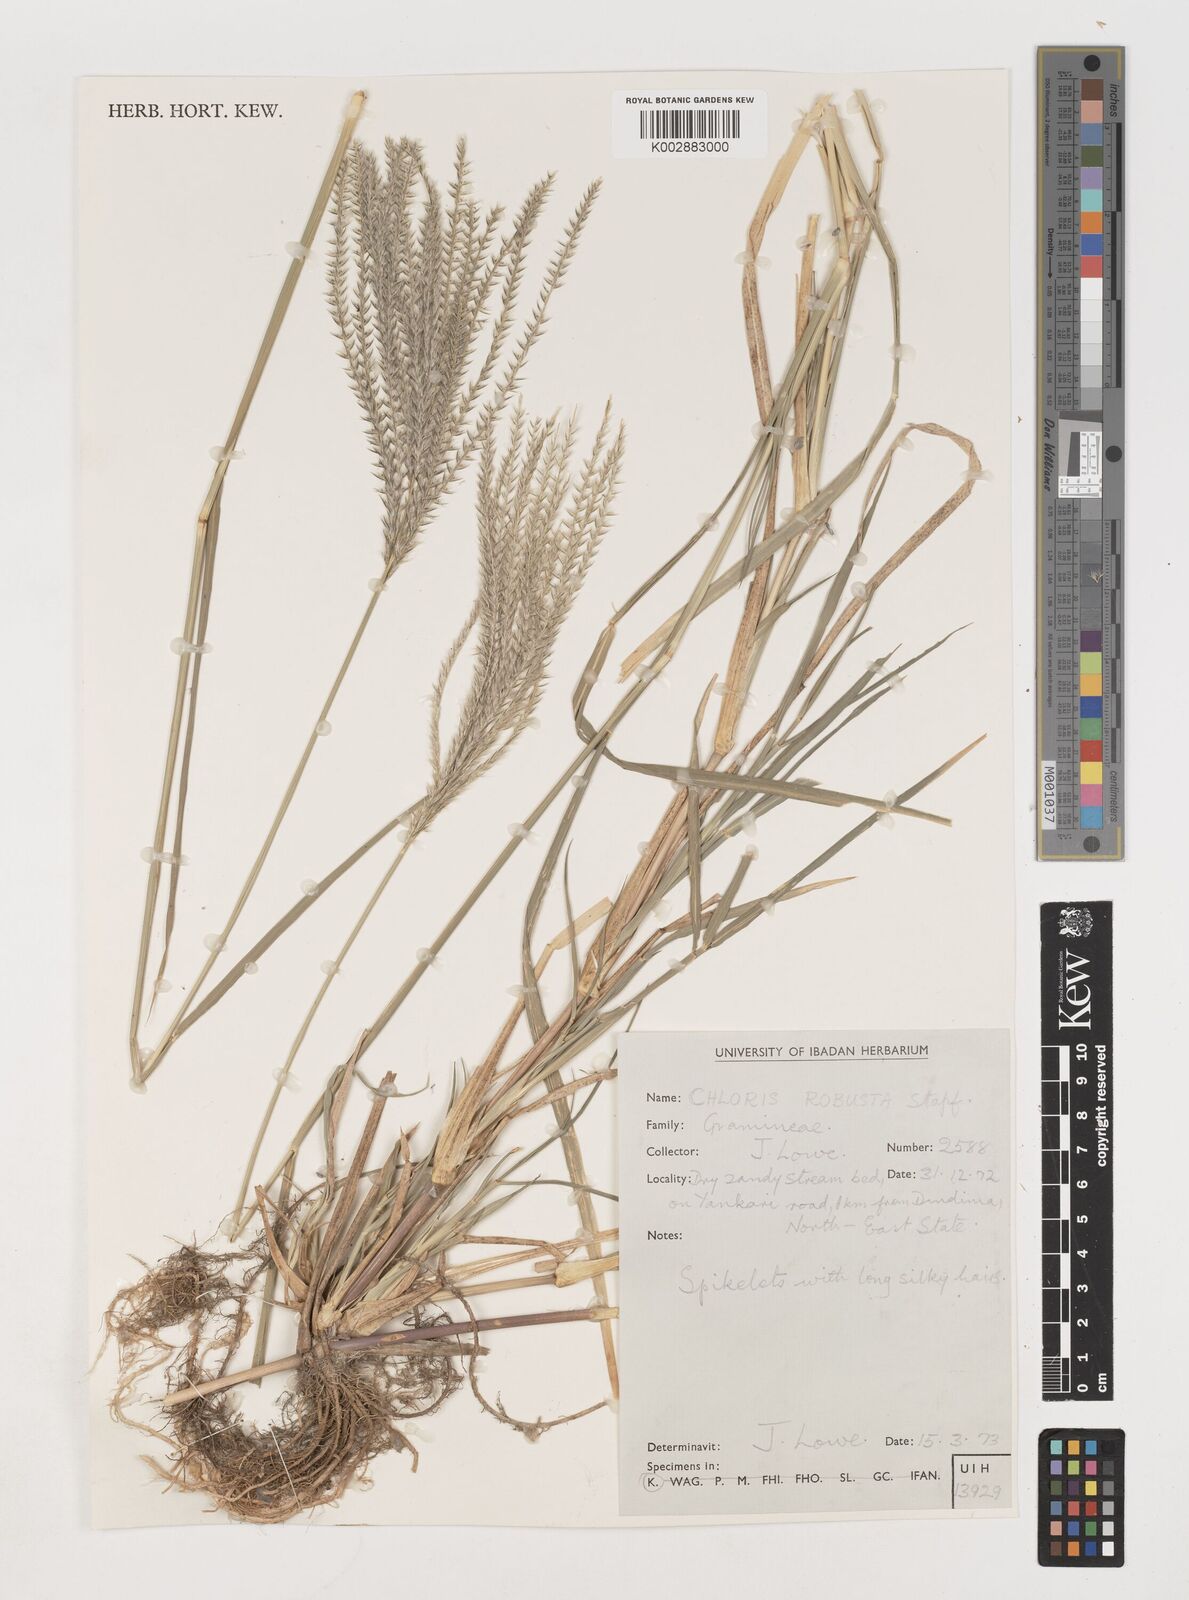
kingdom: Plantae
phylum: Tracheophyta
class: Liliopsida
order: Poales
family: Poaceae
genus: Chloris
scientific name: Chloris robusta
